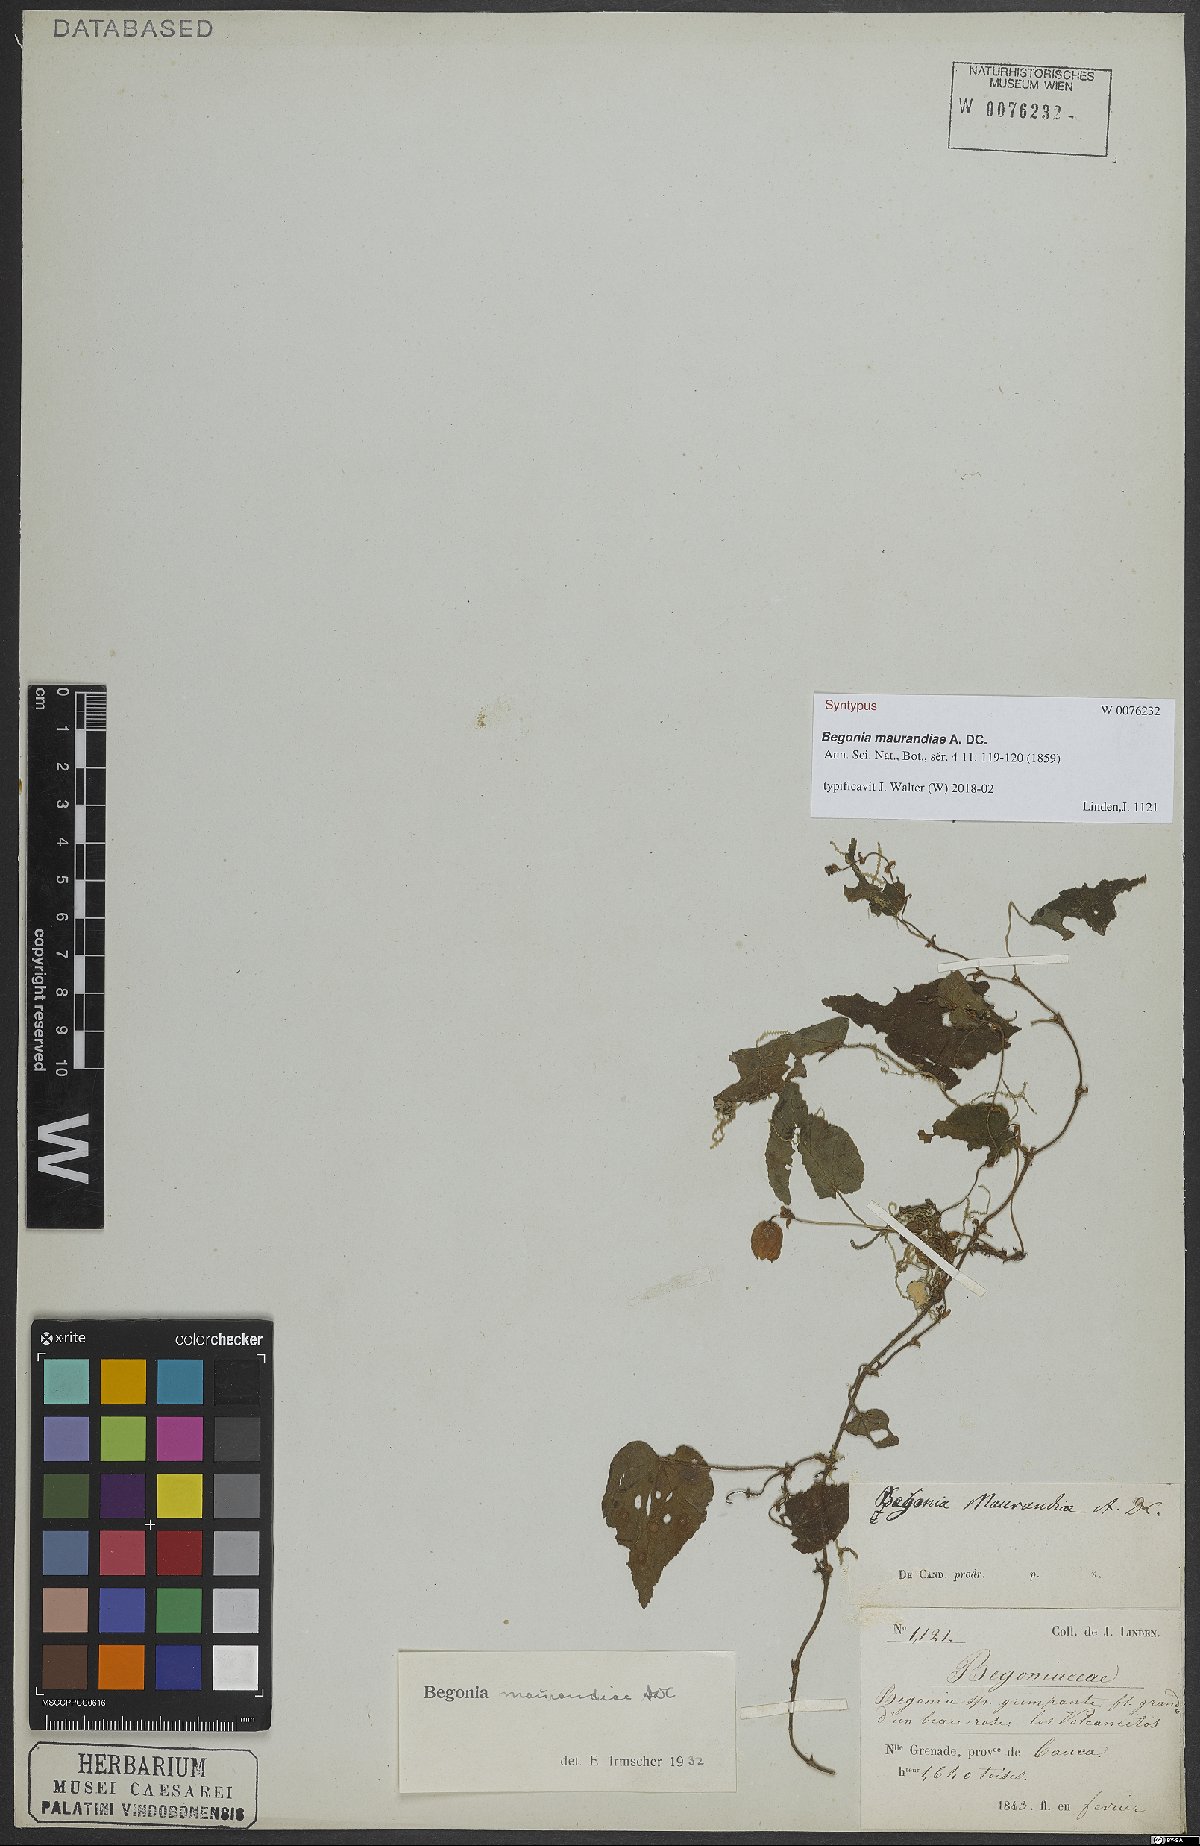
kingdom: Plantae
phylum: Tracheophyta
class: Magnoliopsida
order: Cucurbitales
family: Begoniaceae
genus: Begonia
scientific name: Begonia maurandiae
